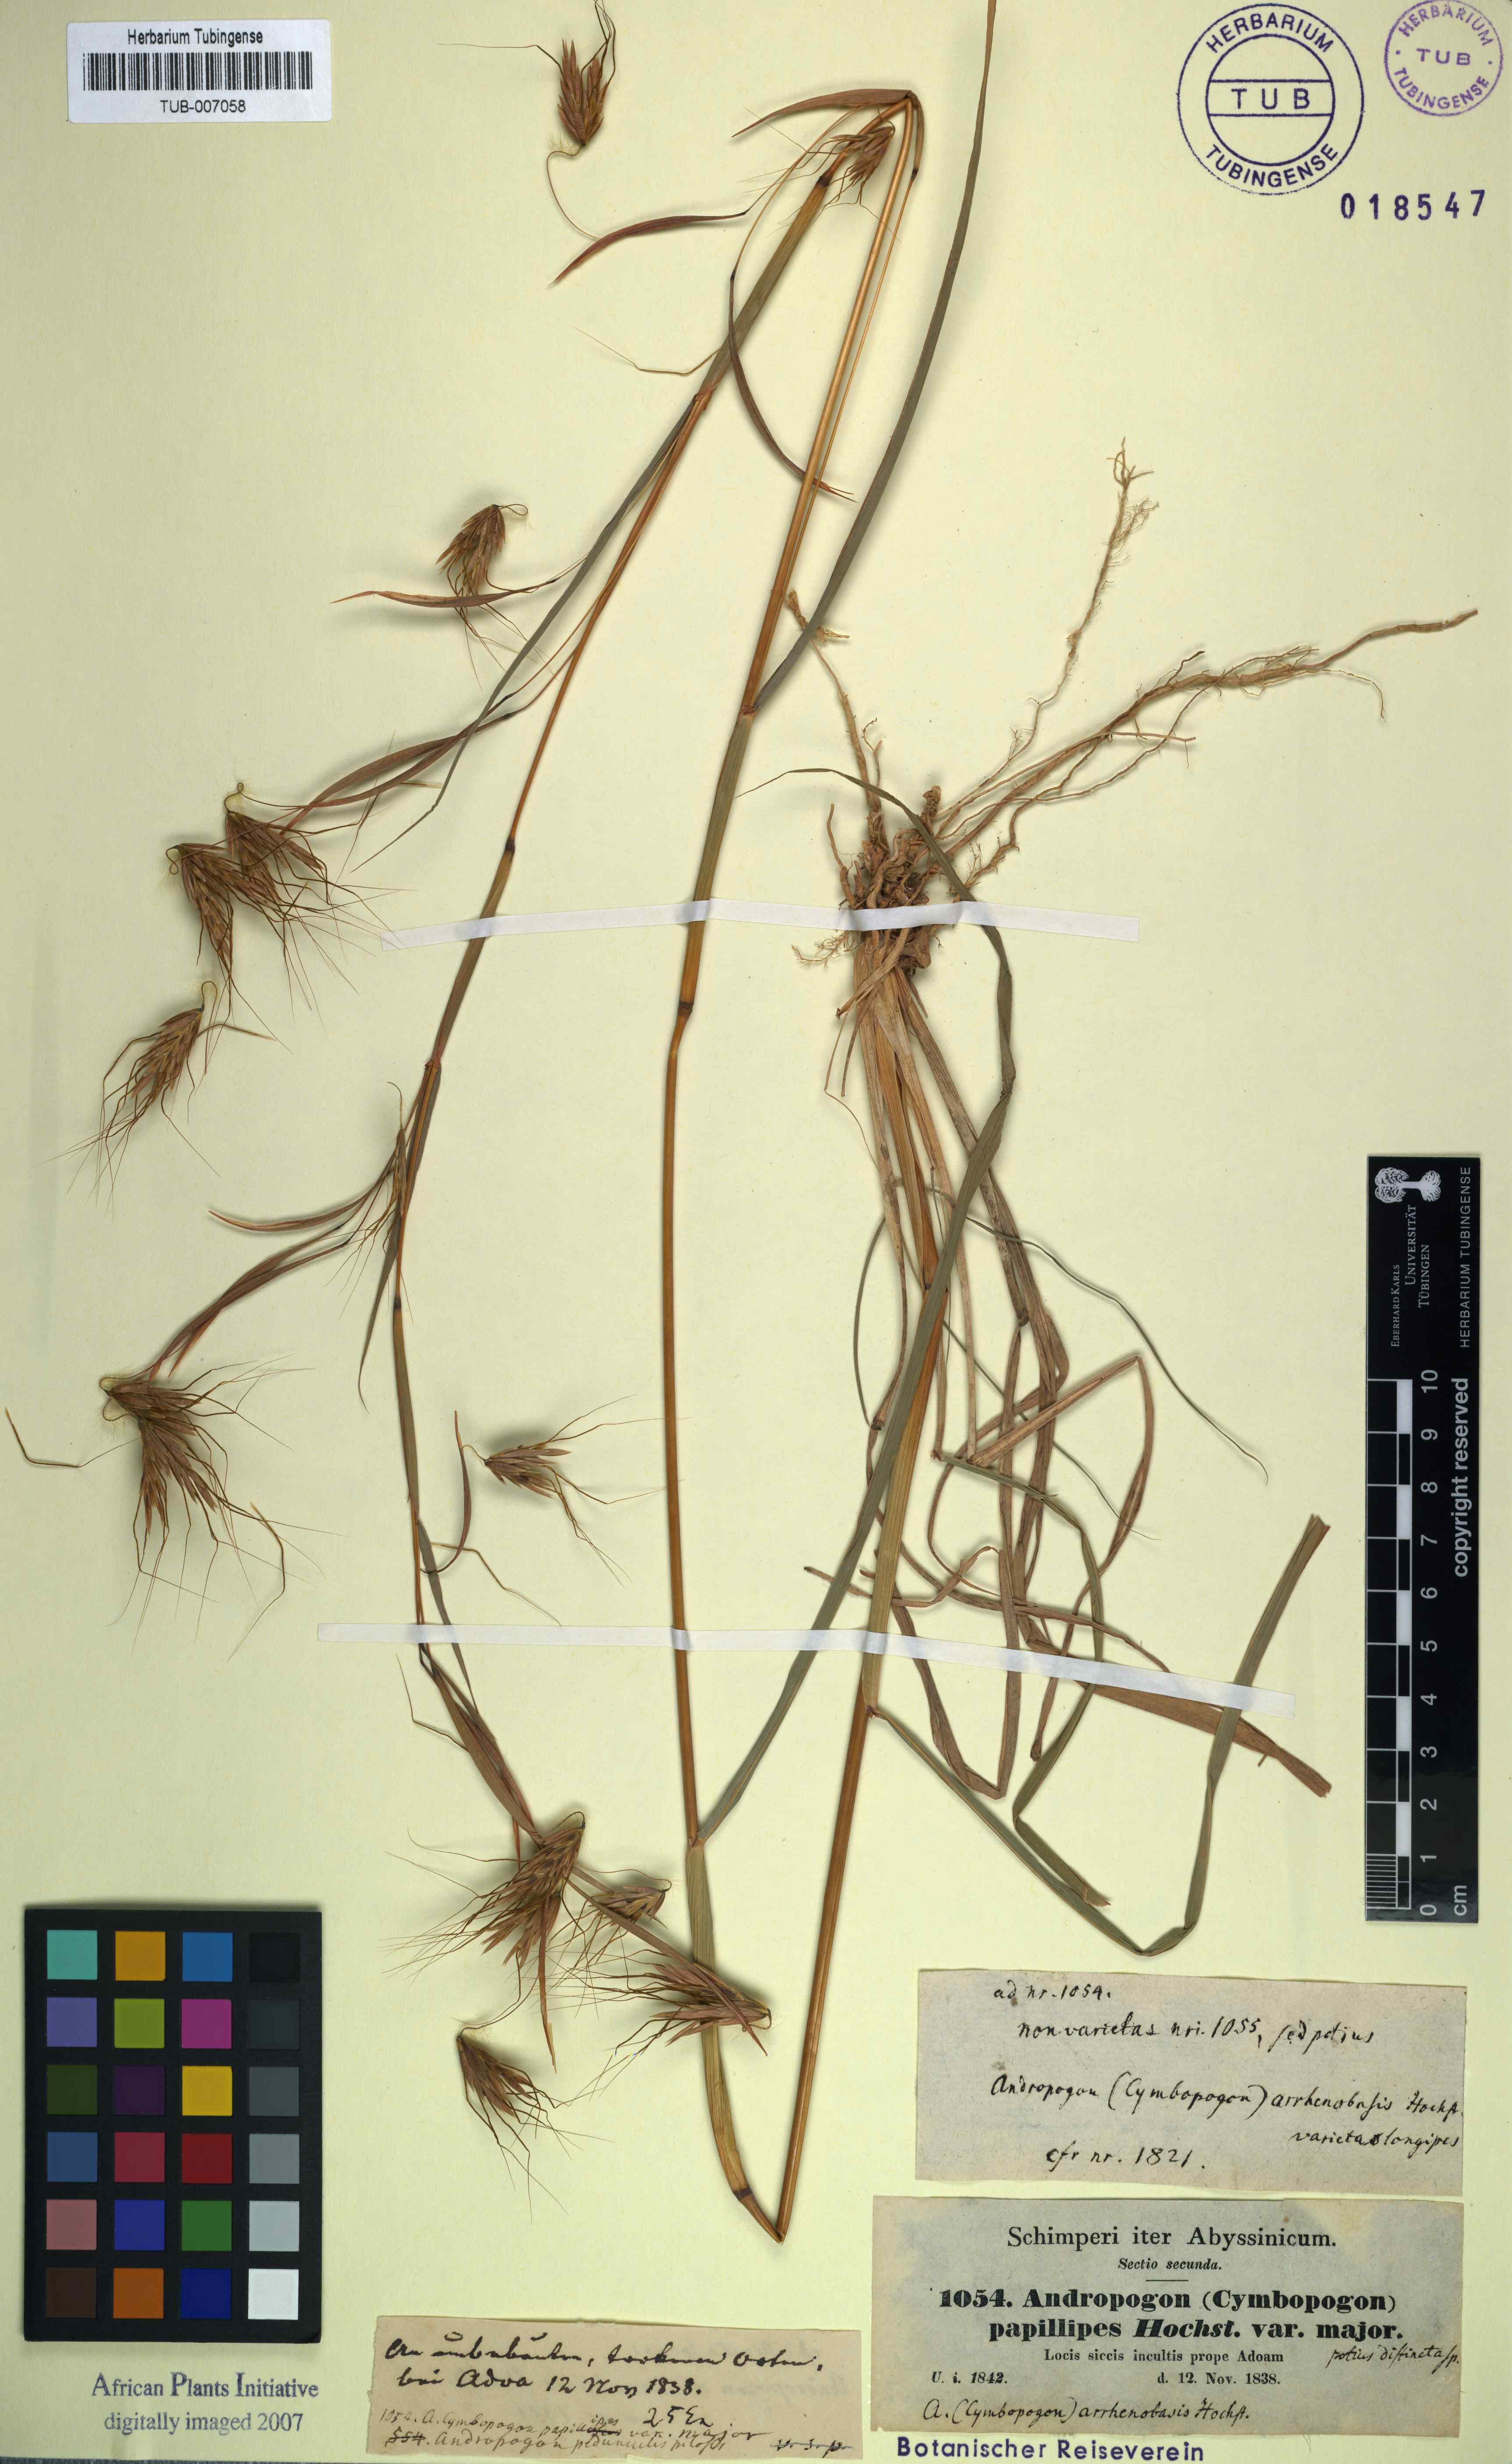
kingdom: Plantae
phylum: Tracheophyta
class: Liliopsida
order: Poales
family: Poaceae
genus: Hyparrhenia
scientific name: Hyparrhenia papillipes
